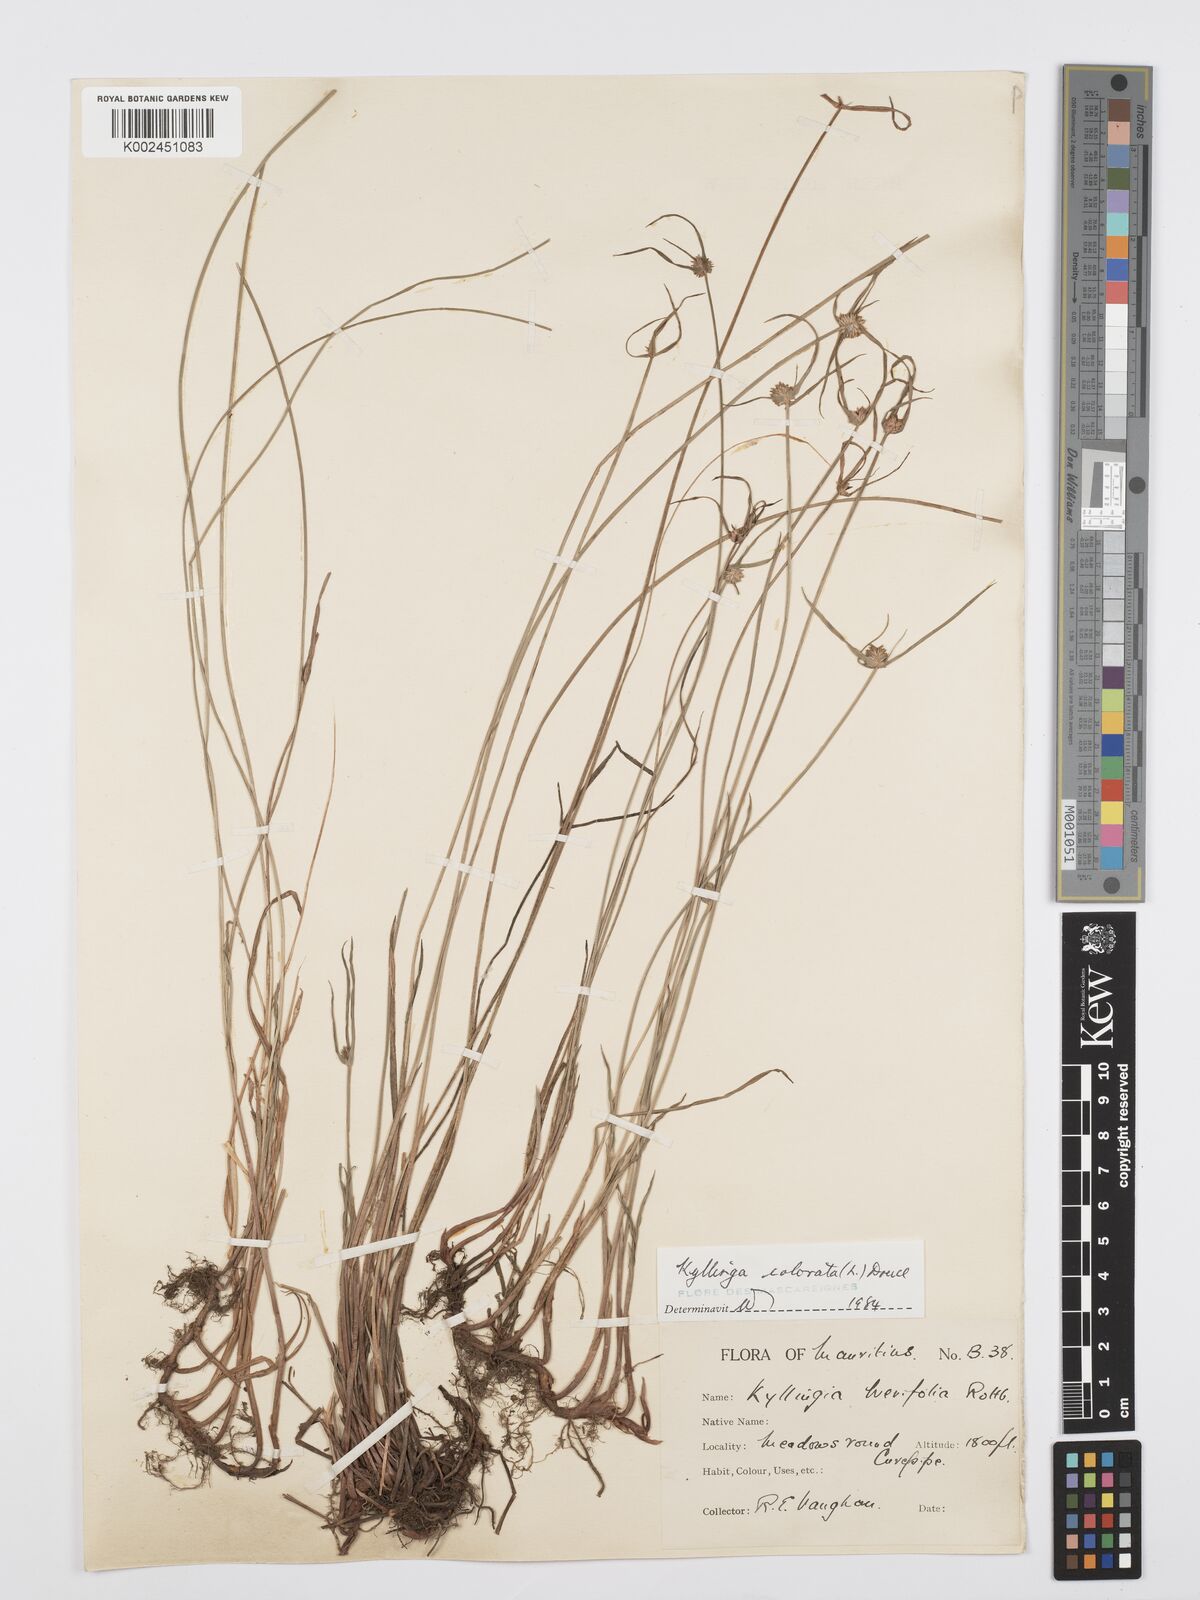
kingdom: Plantae
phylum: Tracheophyta
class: Liliopsida
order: Poales
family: Cyperaceae
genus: Cyperus
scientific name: Cyperus brevifolius
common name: Globe kyllinga
